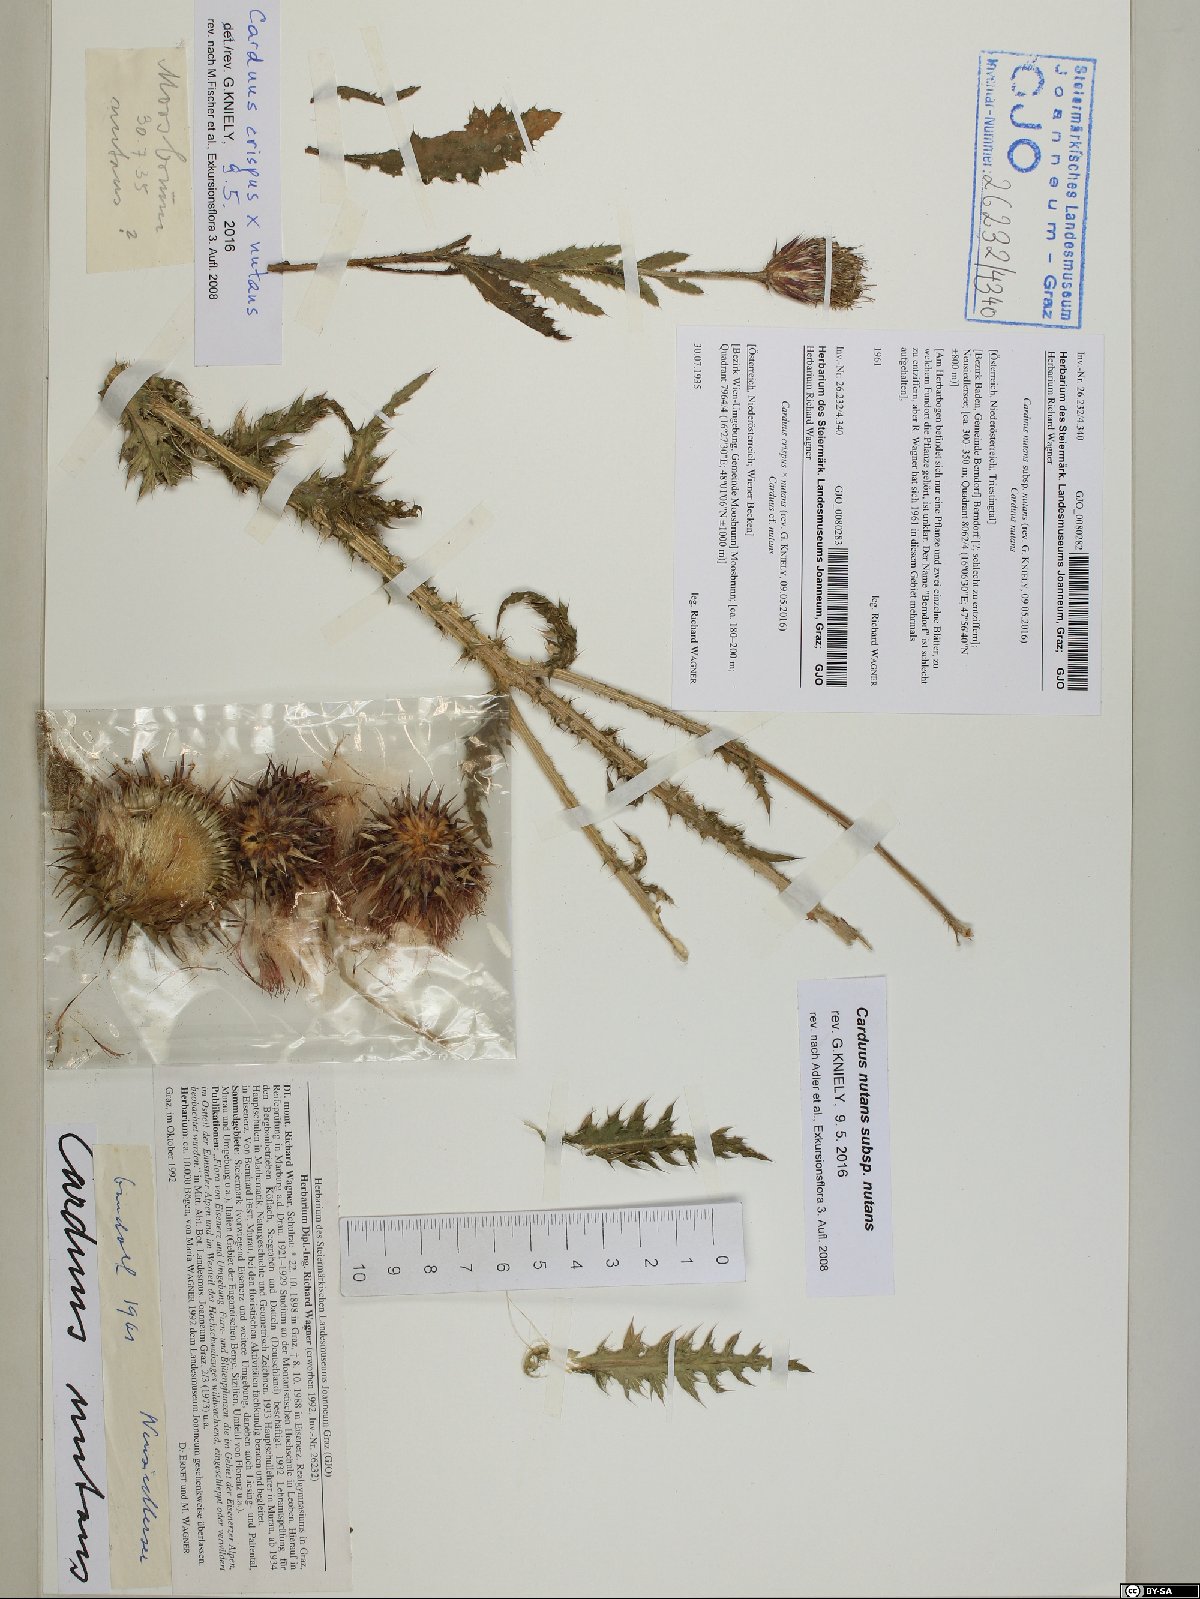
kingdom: Plantae
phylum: Tracheophyta
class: Magnoliopsida
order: Asterales
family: Asteraceae
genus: Carduus
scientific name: Carduus nutans
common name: Musk thistle
